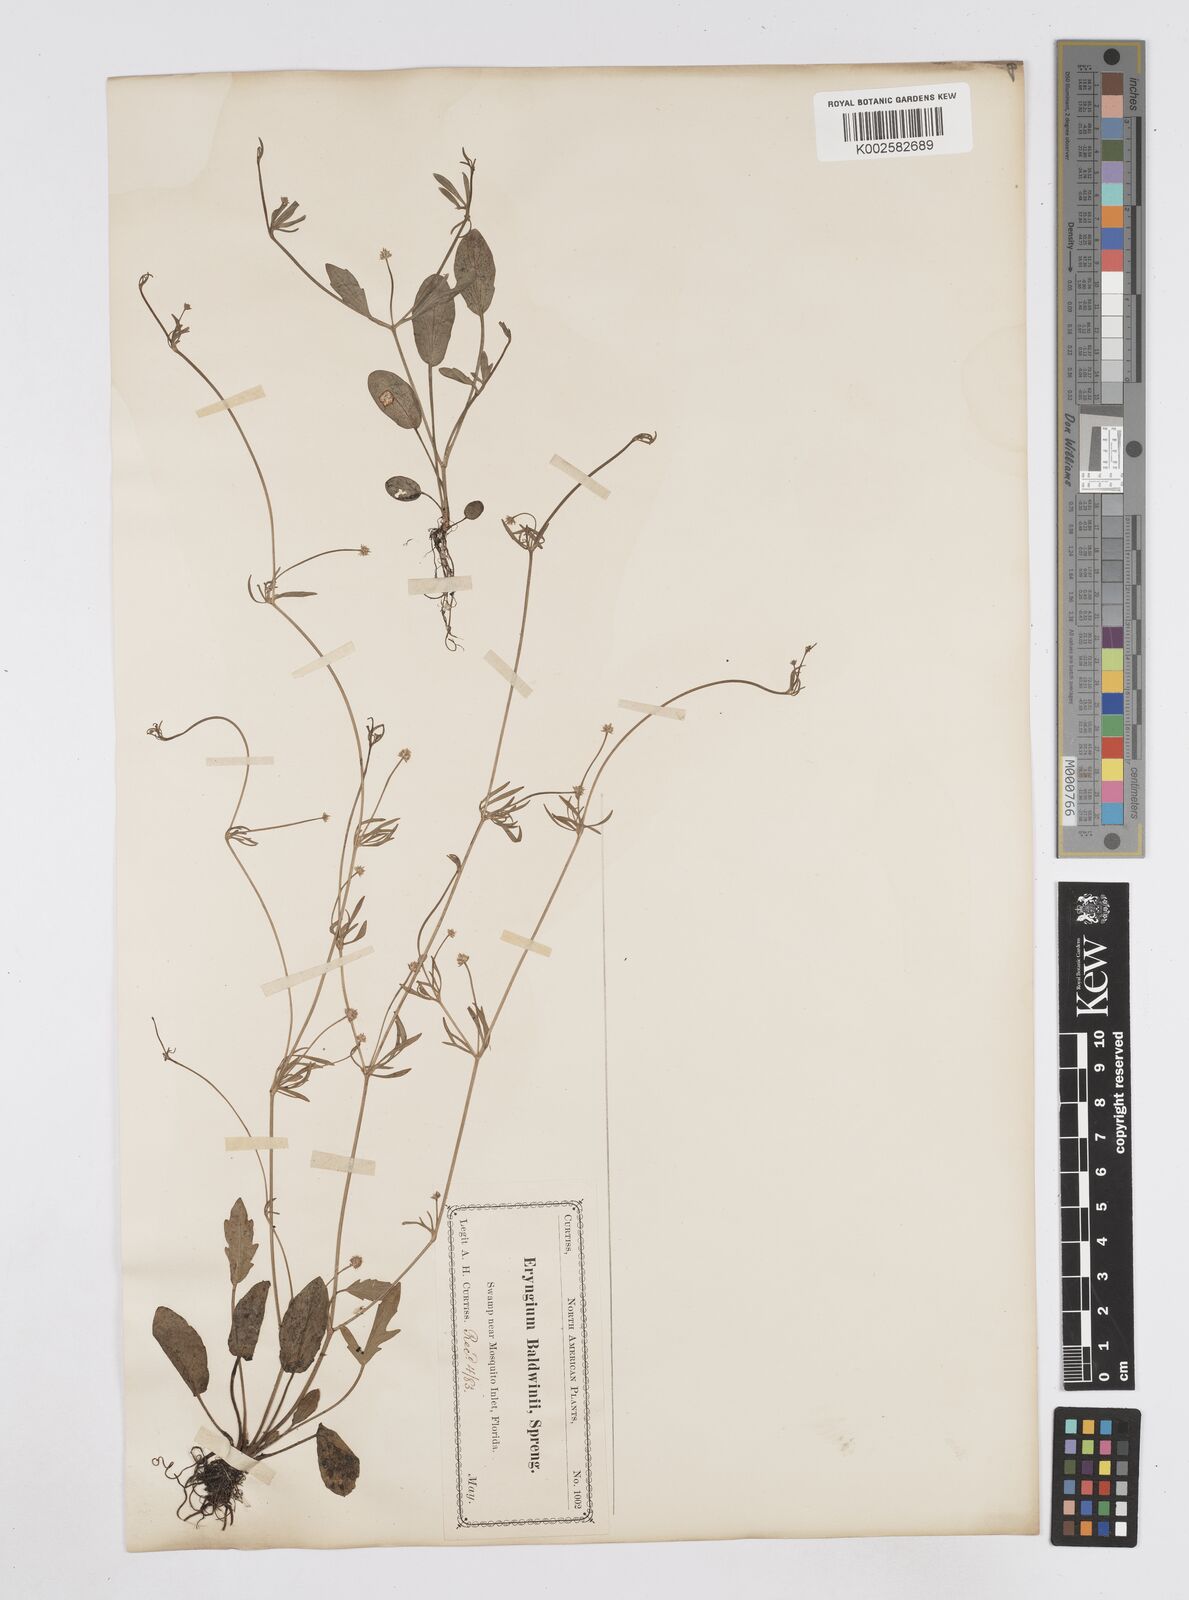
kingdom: Plantae
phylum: Tracheophyta
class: Magnoliopsida
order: Apiales
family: Apiaceae
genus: Eryngium
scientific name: Eryngium baldwinii
